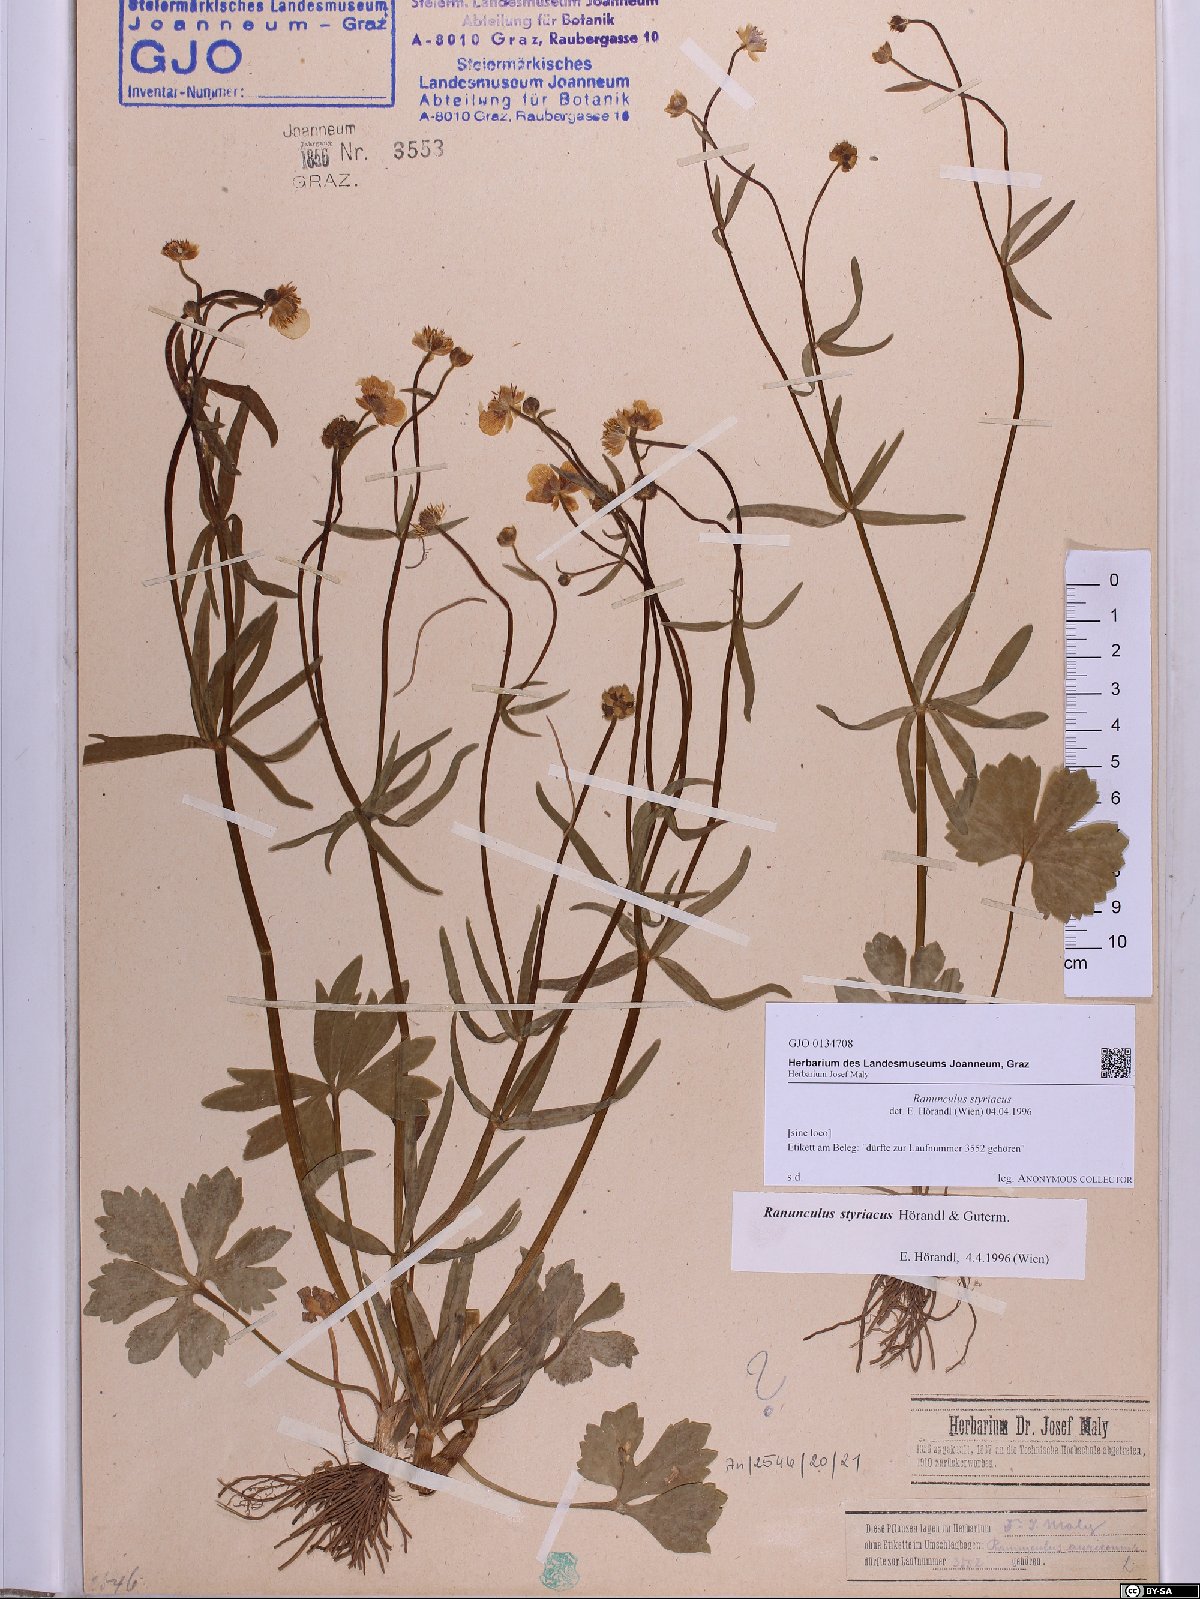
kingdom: Plantae
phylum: Tracheophyta
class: Magnoliopsida
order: Ranunculales
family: Ranunculaceae
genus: Ranunculus
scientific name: Ranunculus styriacus
